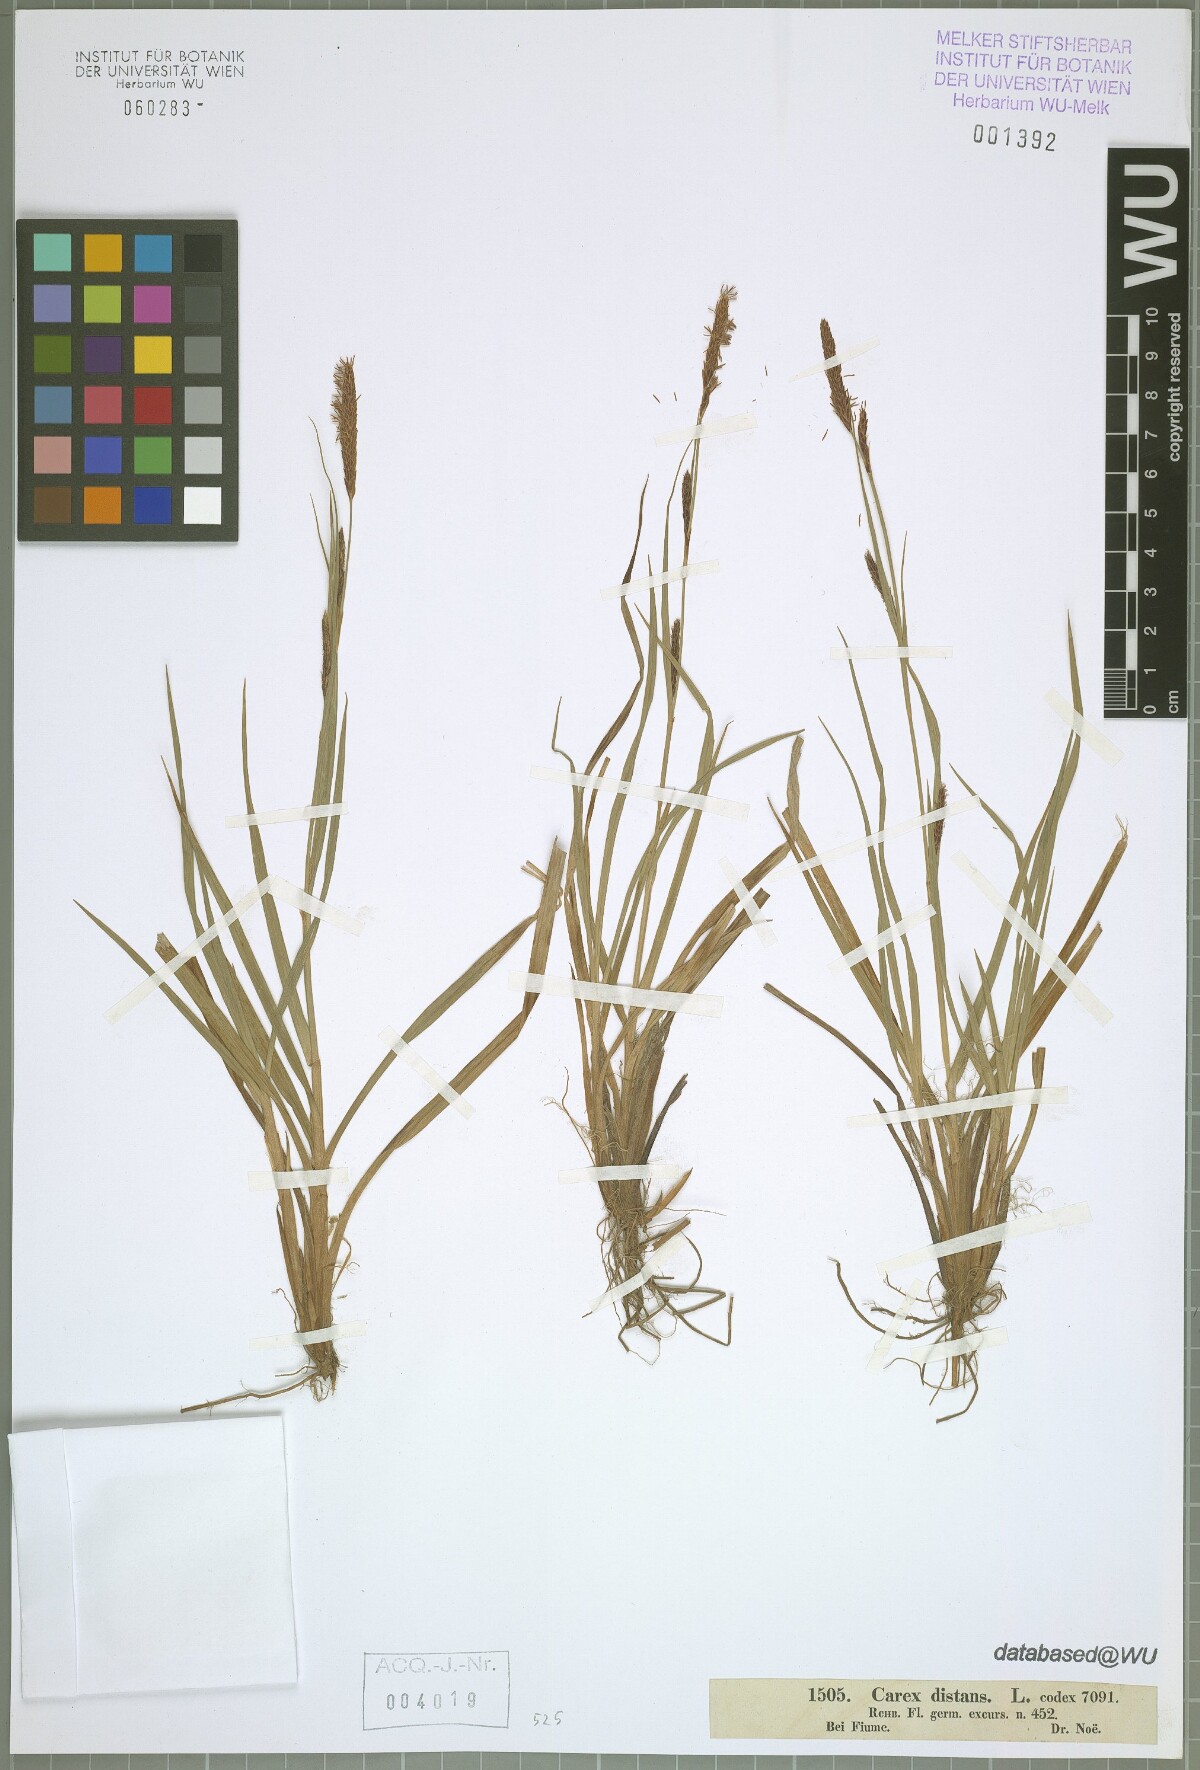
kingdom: Plantae
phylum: Tracheophyta
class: Liliopsida
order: Poales
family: Cyperaceae
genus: Carex
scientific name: Carex distans
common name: Distant sedge
